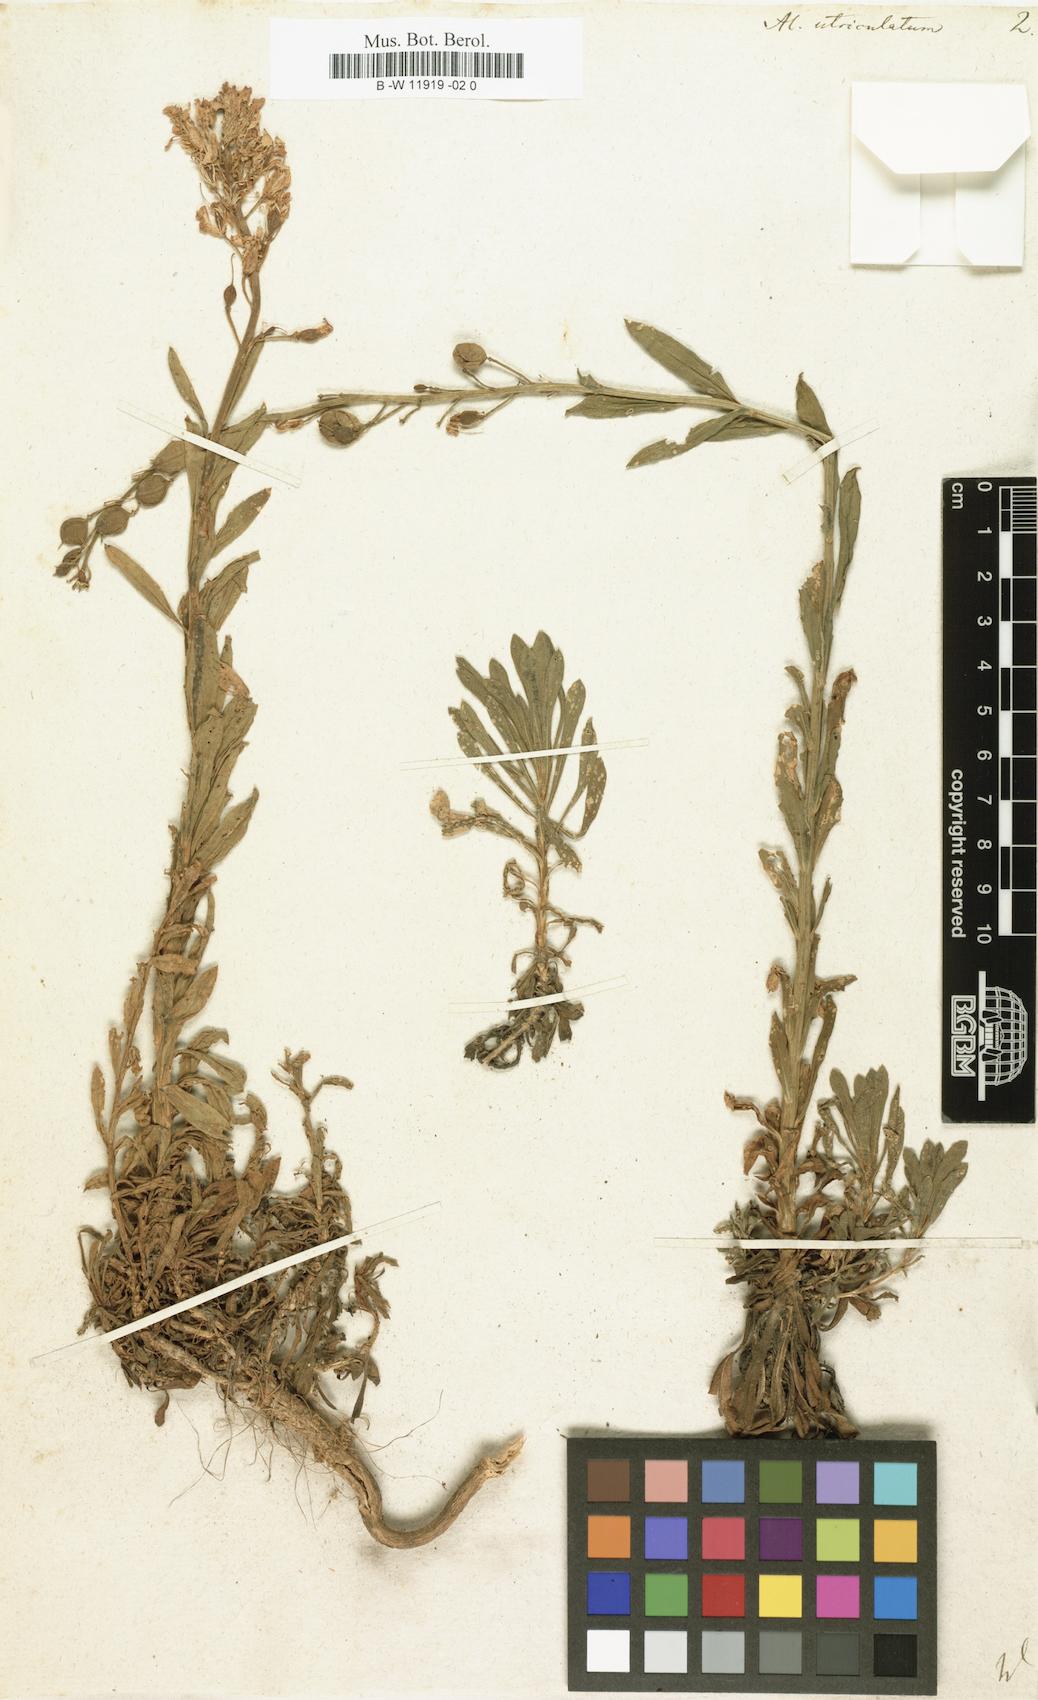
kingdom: Plantae
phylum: Tracheophyta
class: Magnoliopsida
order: Brassicales
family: Brassicaceae
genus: Alyssoides
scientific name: Alyssoides utriculata
